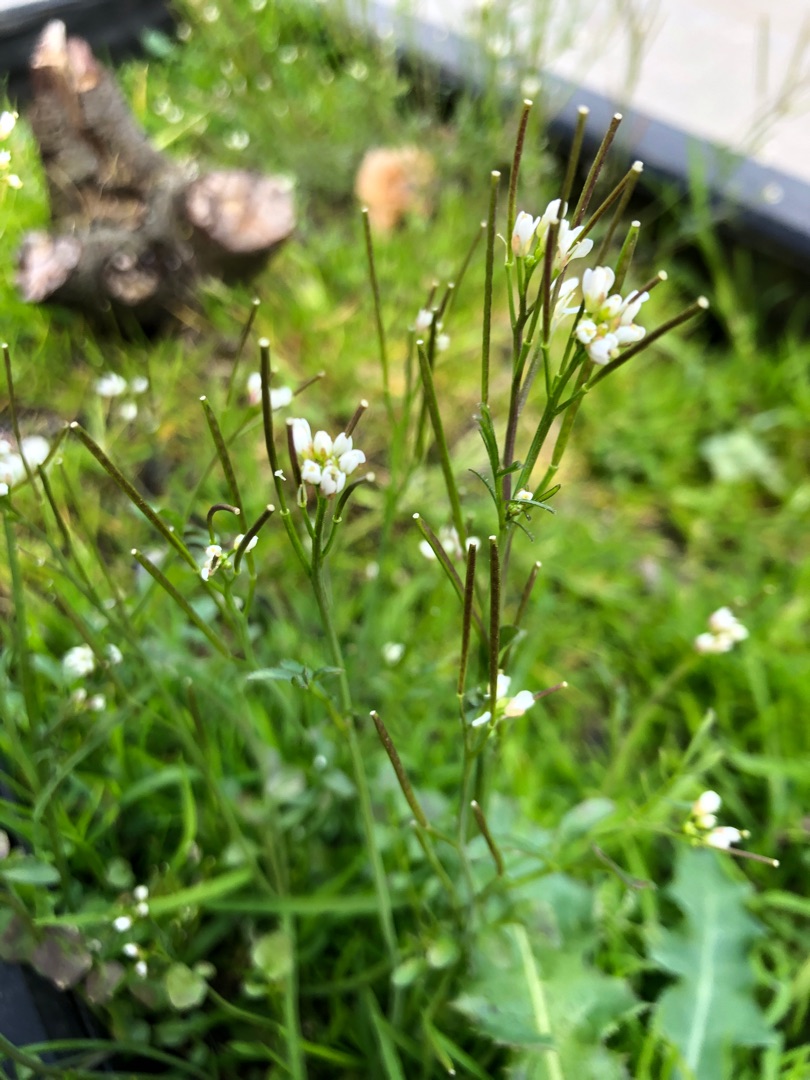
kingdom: Plantae
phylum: Tracheophyta
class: Magnoliopsida
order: Brassicales
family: Brassicaceae
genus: Cardamine
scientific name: Cardamine hirsuta
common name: Roset-springklap
